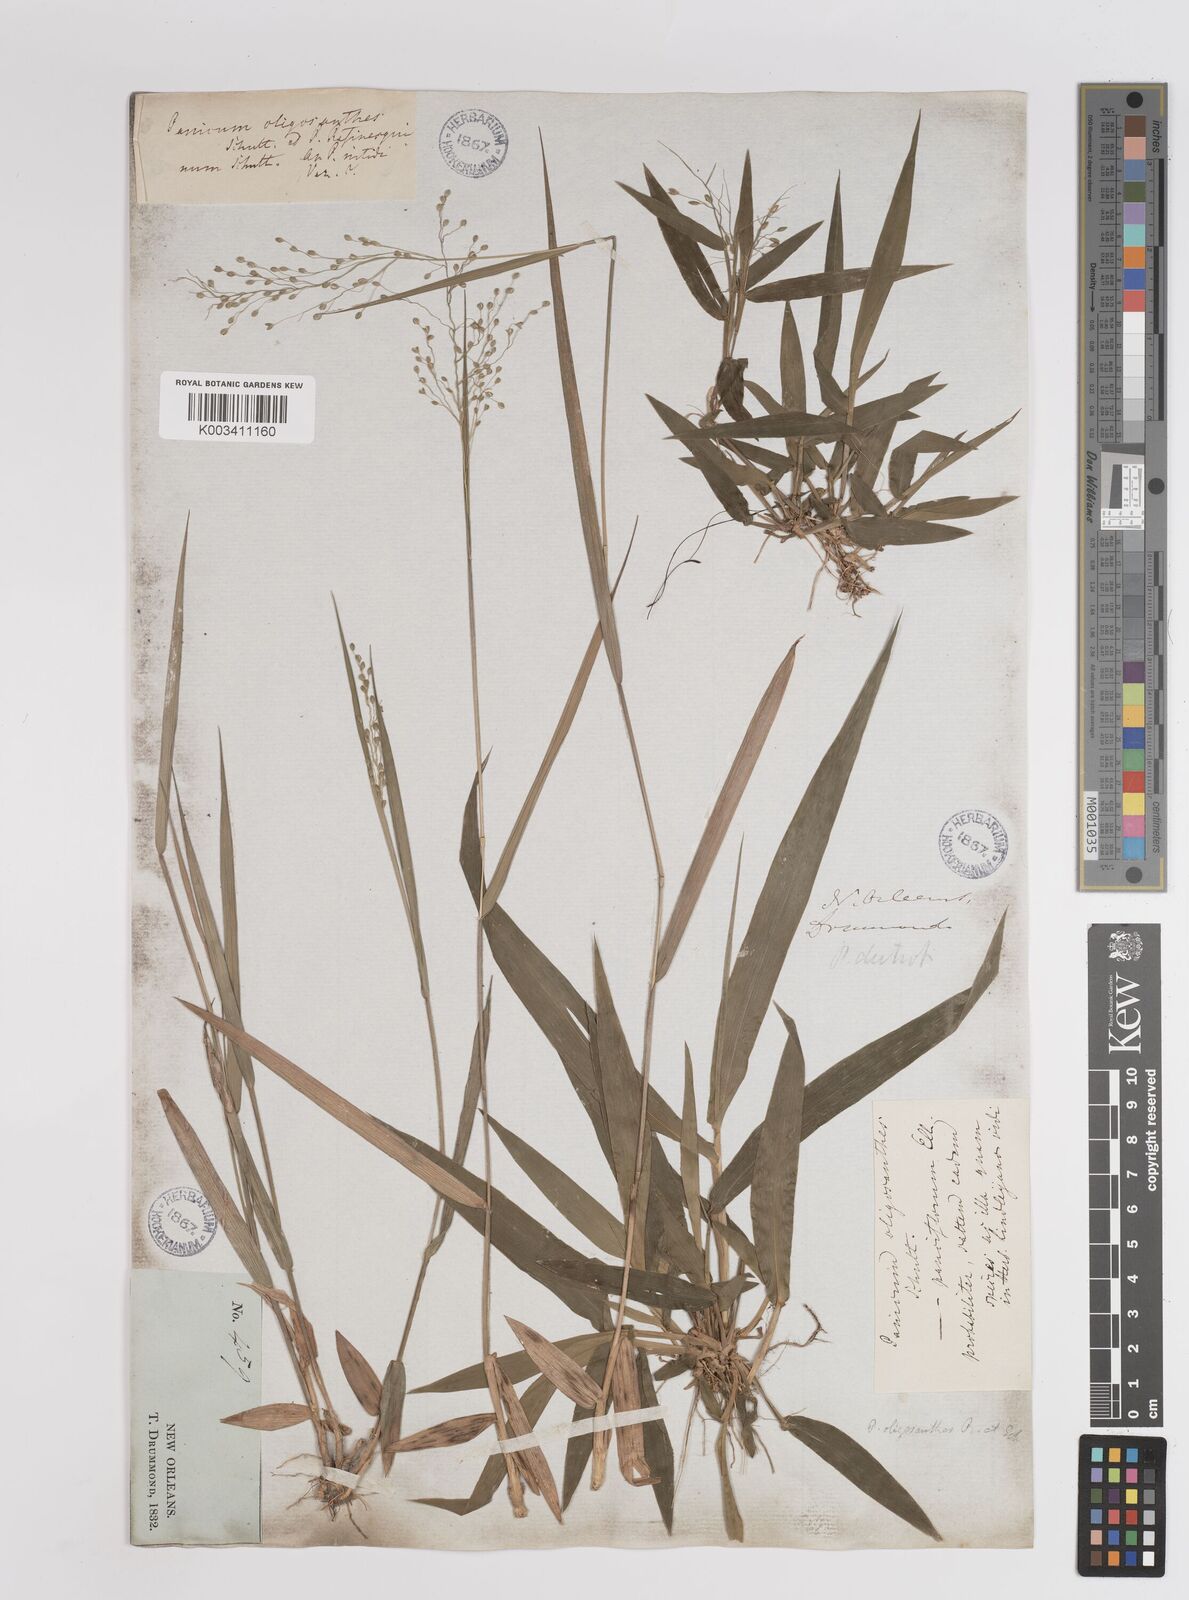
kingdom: Plantae
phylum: Tracheophyta
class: Liliopsida
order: Poales
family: Poaceae
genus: Dichanthelium
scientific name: Dichanthelium oligosanthes
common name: Few-anther obscuregrass
